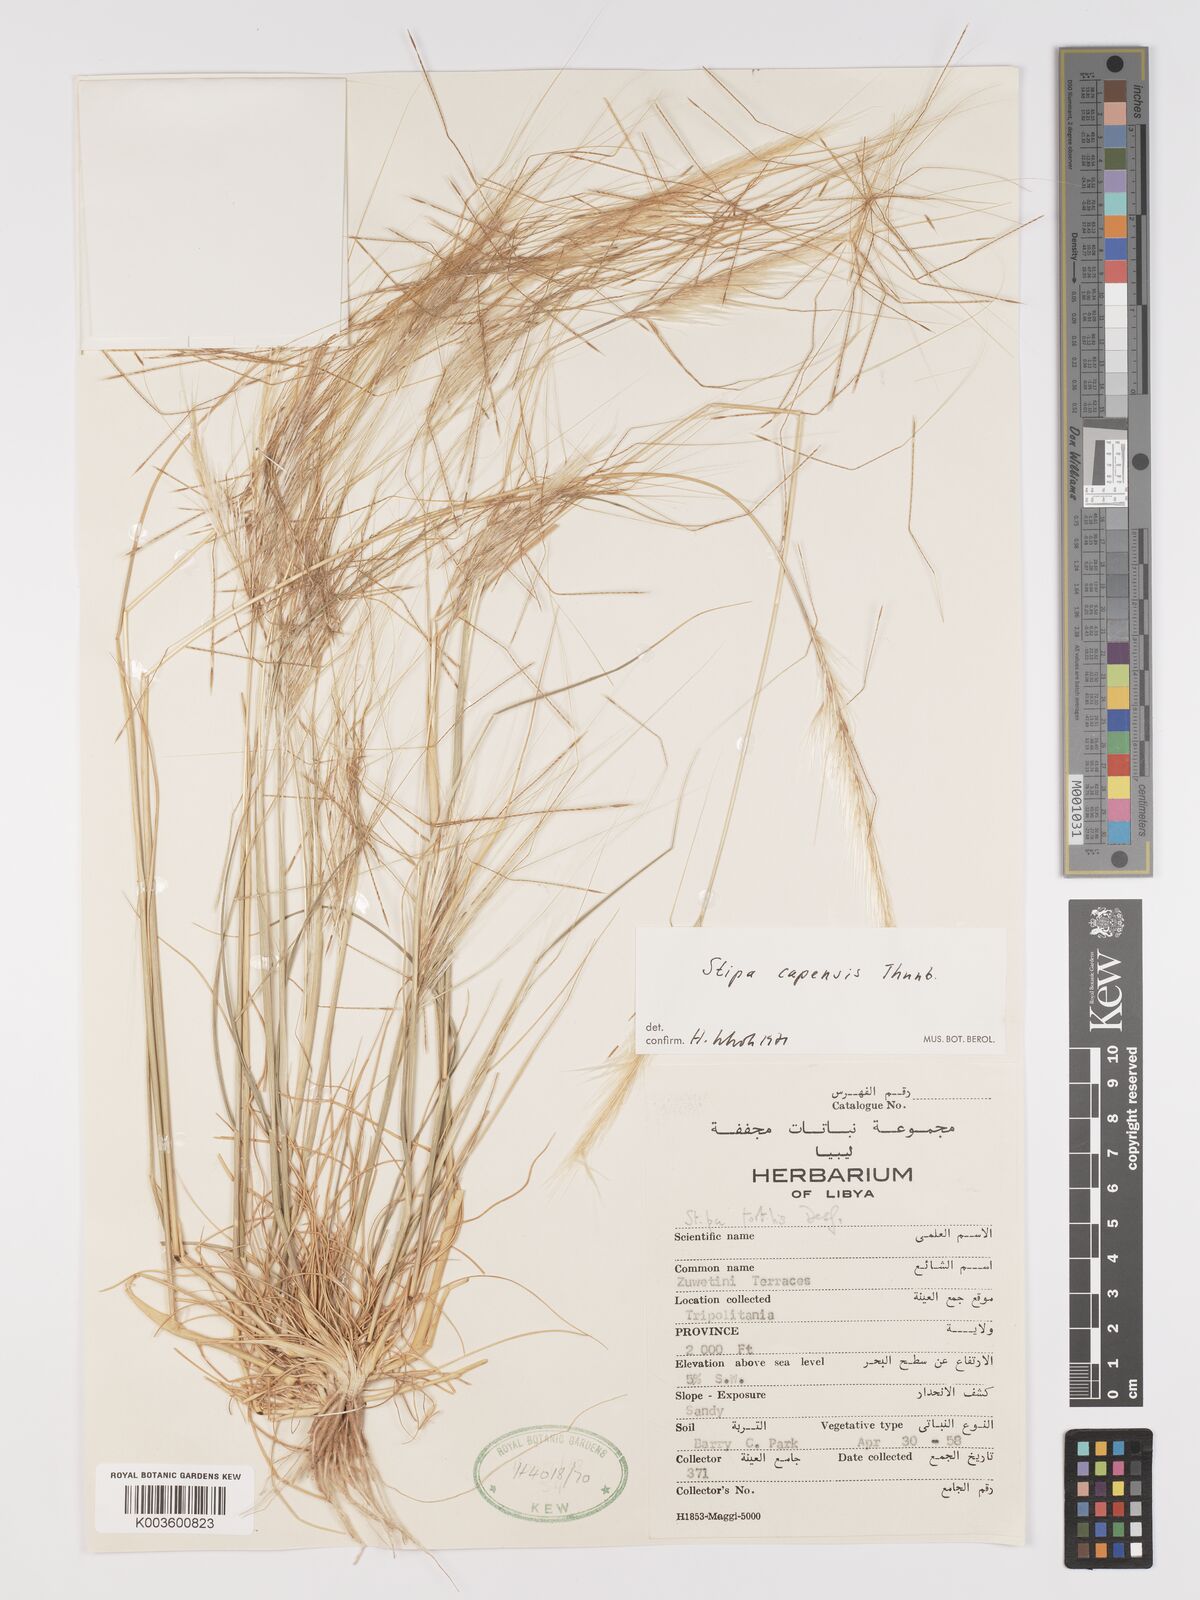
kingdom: Plantae
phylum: Tracheophyta
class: Liliopsida
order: Poales
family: Poaceae
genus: Stipellula
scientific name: Stipellula capensis
